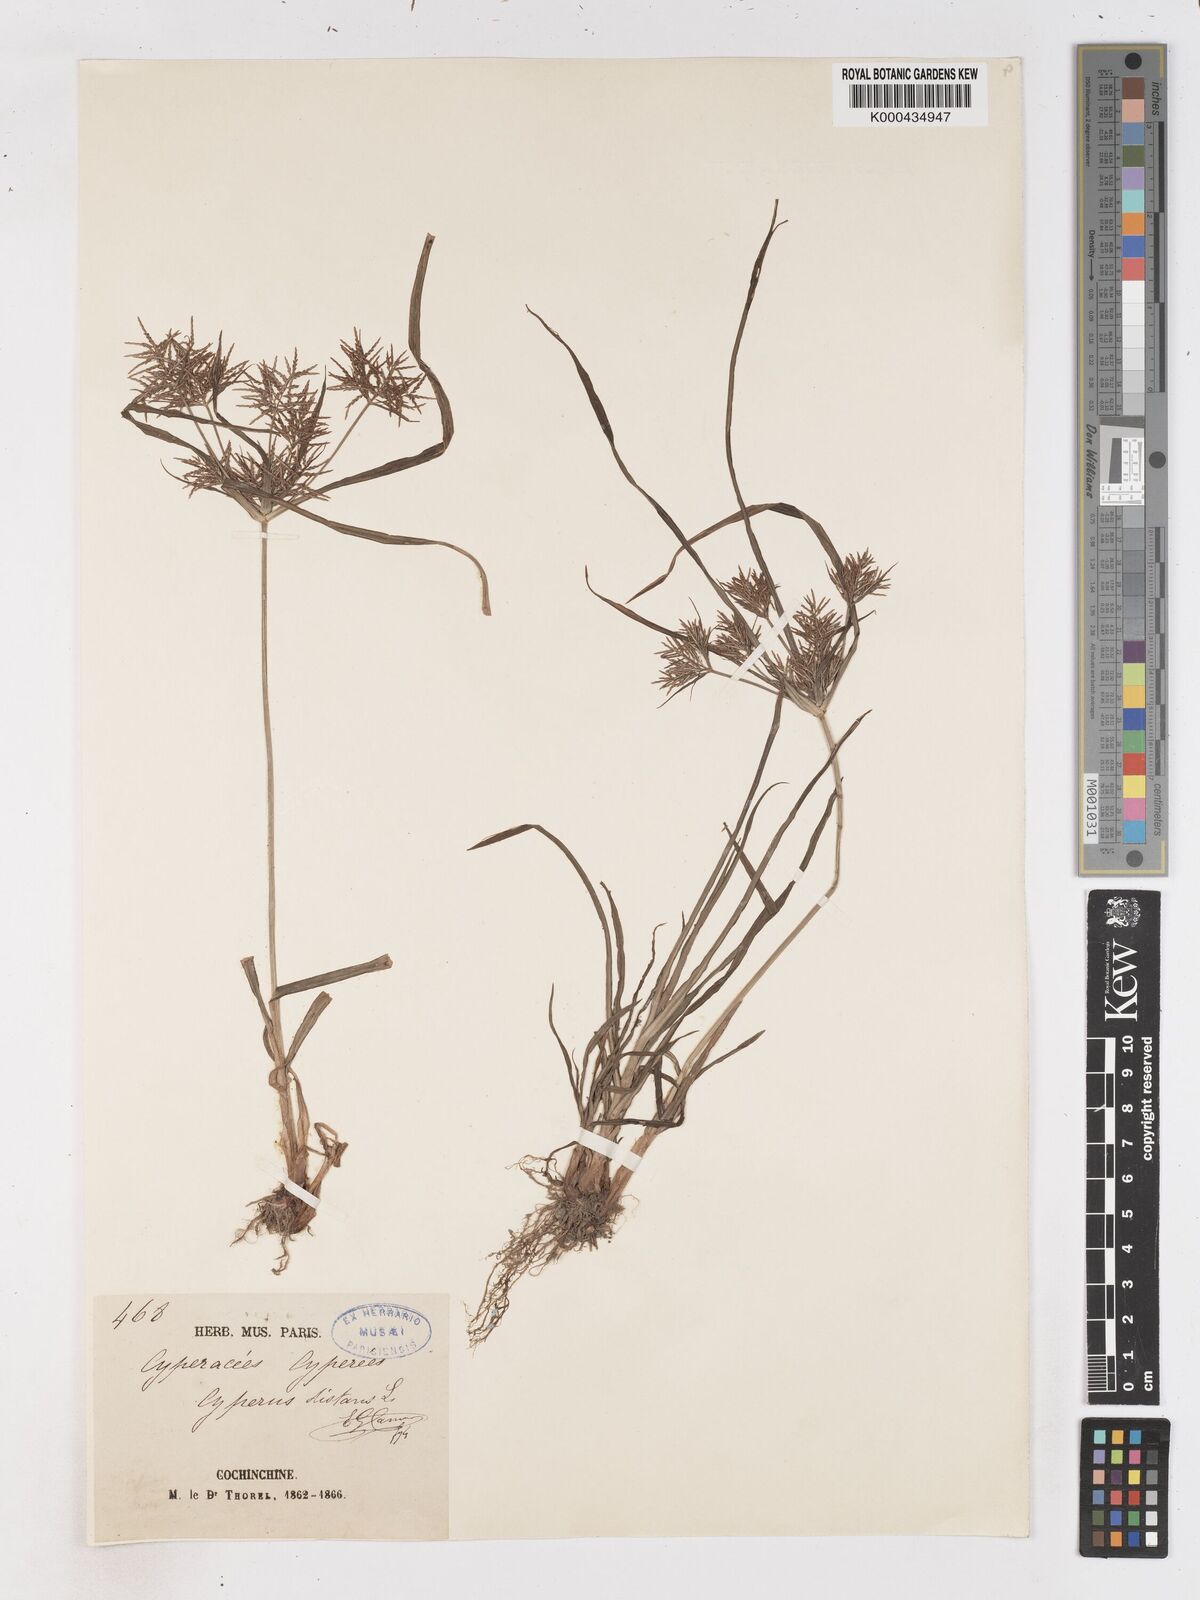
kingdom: Plantae
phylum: Tracheophyta
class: Liliopsida
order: Poales
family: Cyperaceae
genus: Cyperus
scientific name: Cyperus distans
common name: Slender cyperus
